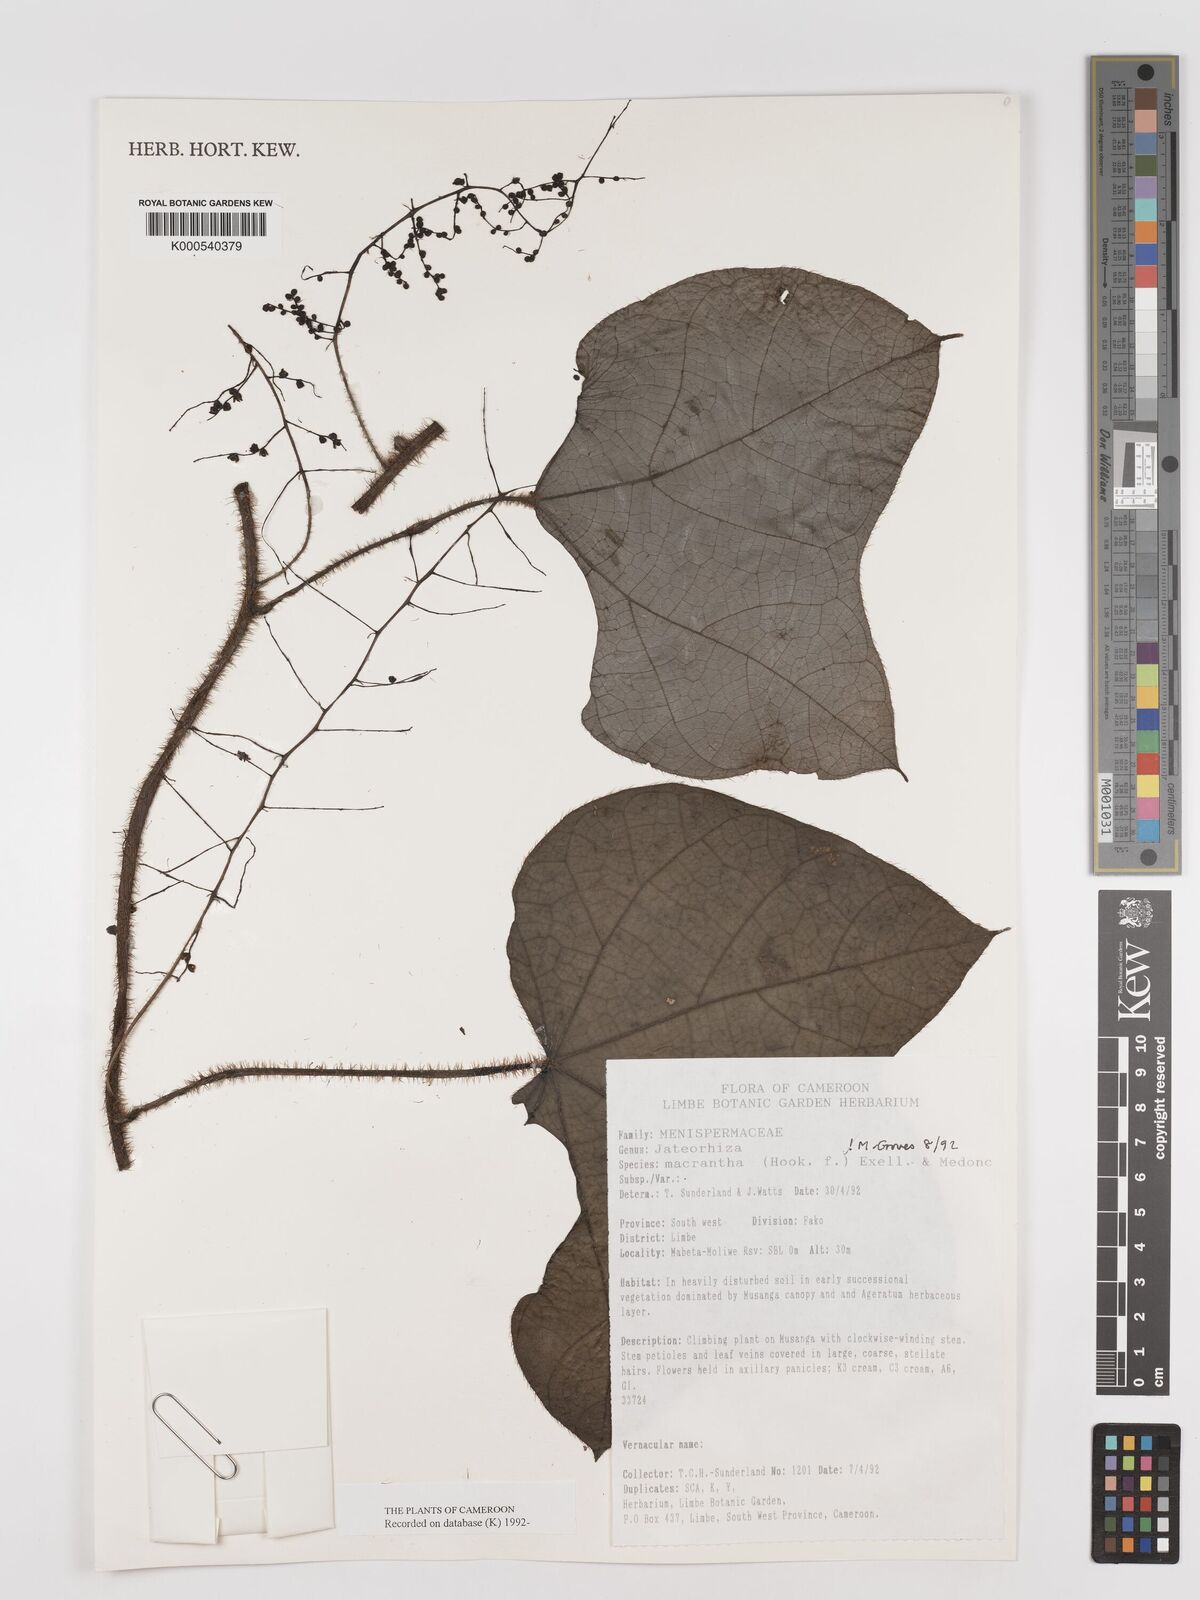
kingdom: Plantae
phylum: Tracheophyta
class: Magnoliopsida
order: Ranunculales
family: Menispermaceae
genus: Jateorhiza
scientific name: Jateorhiza
